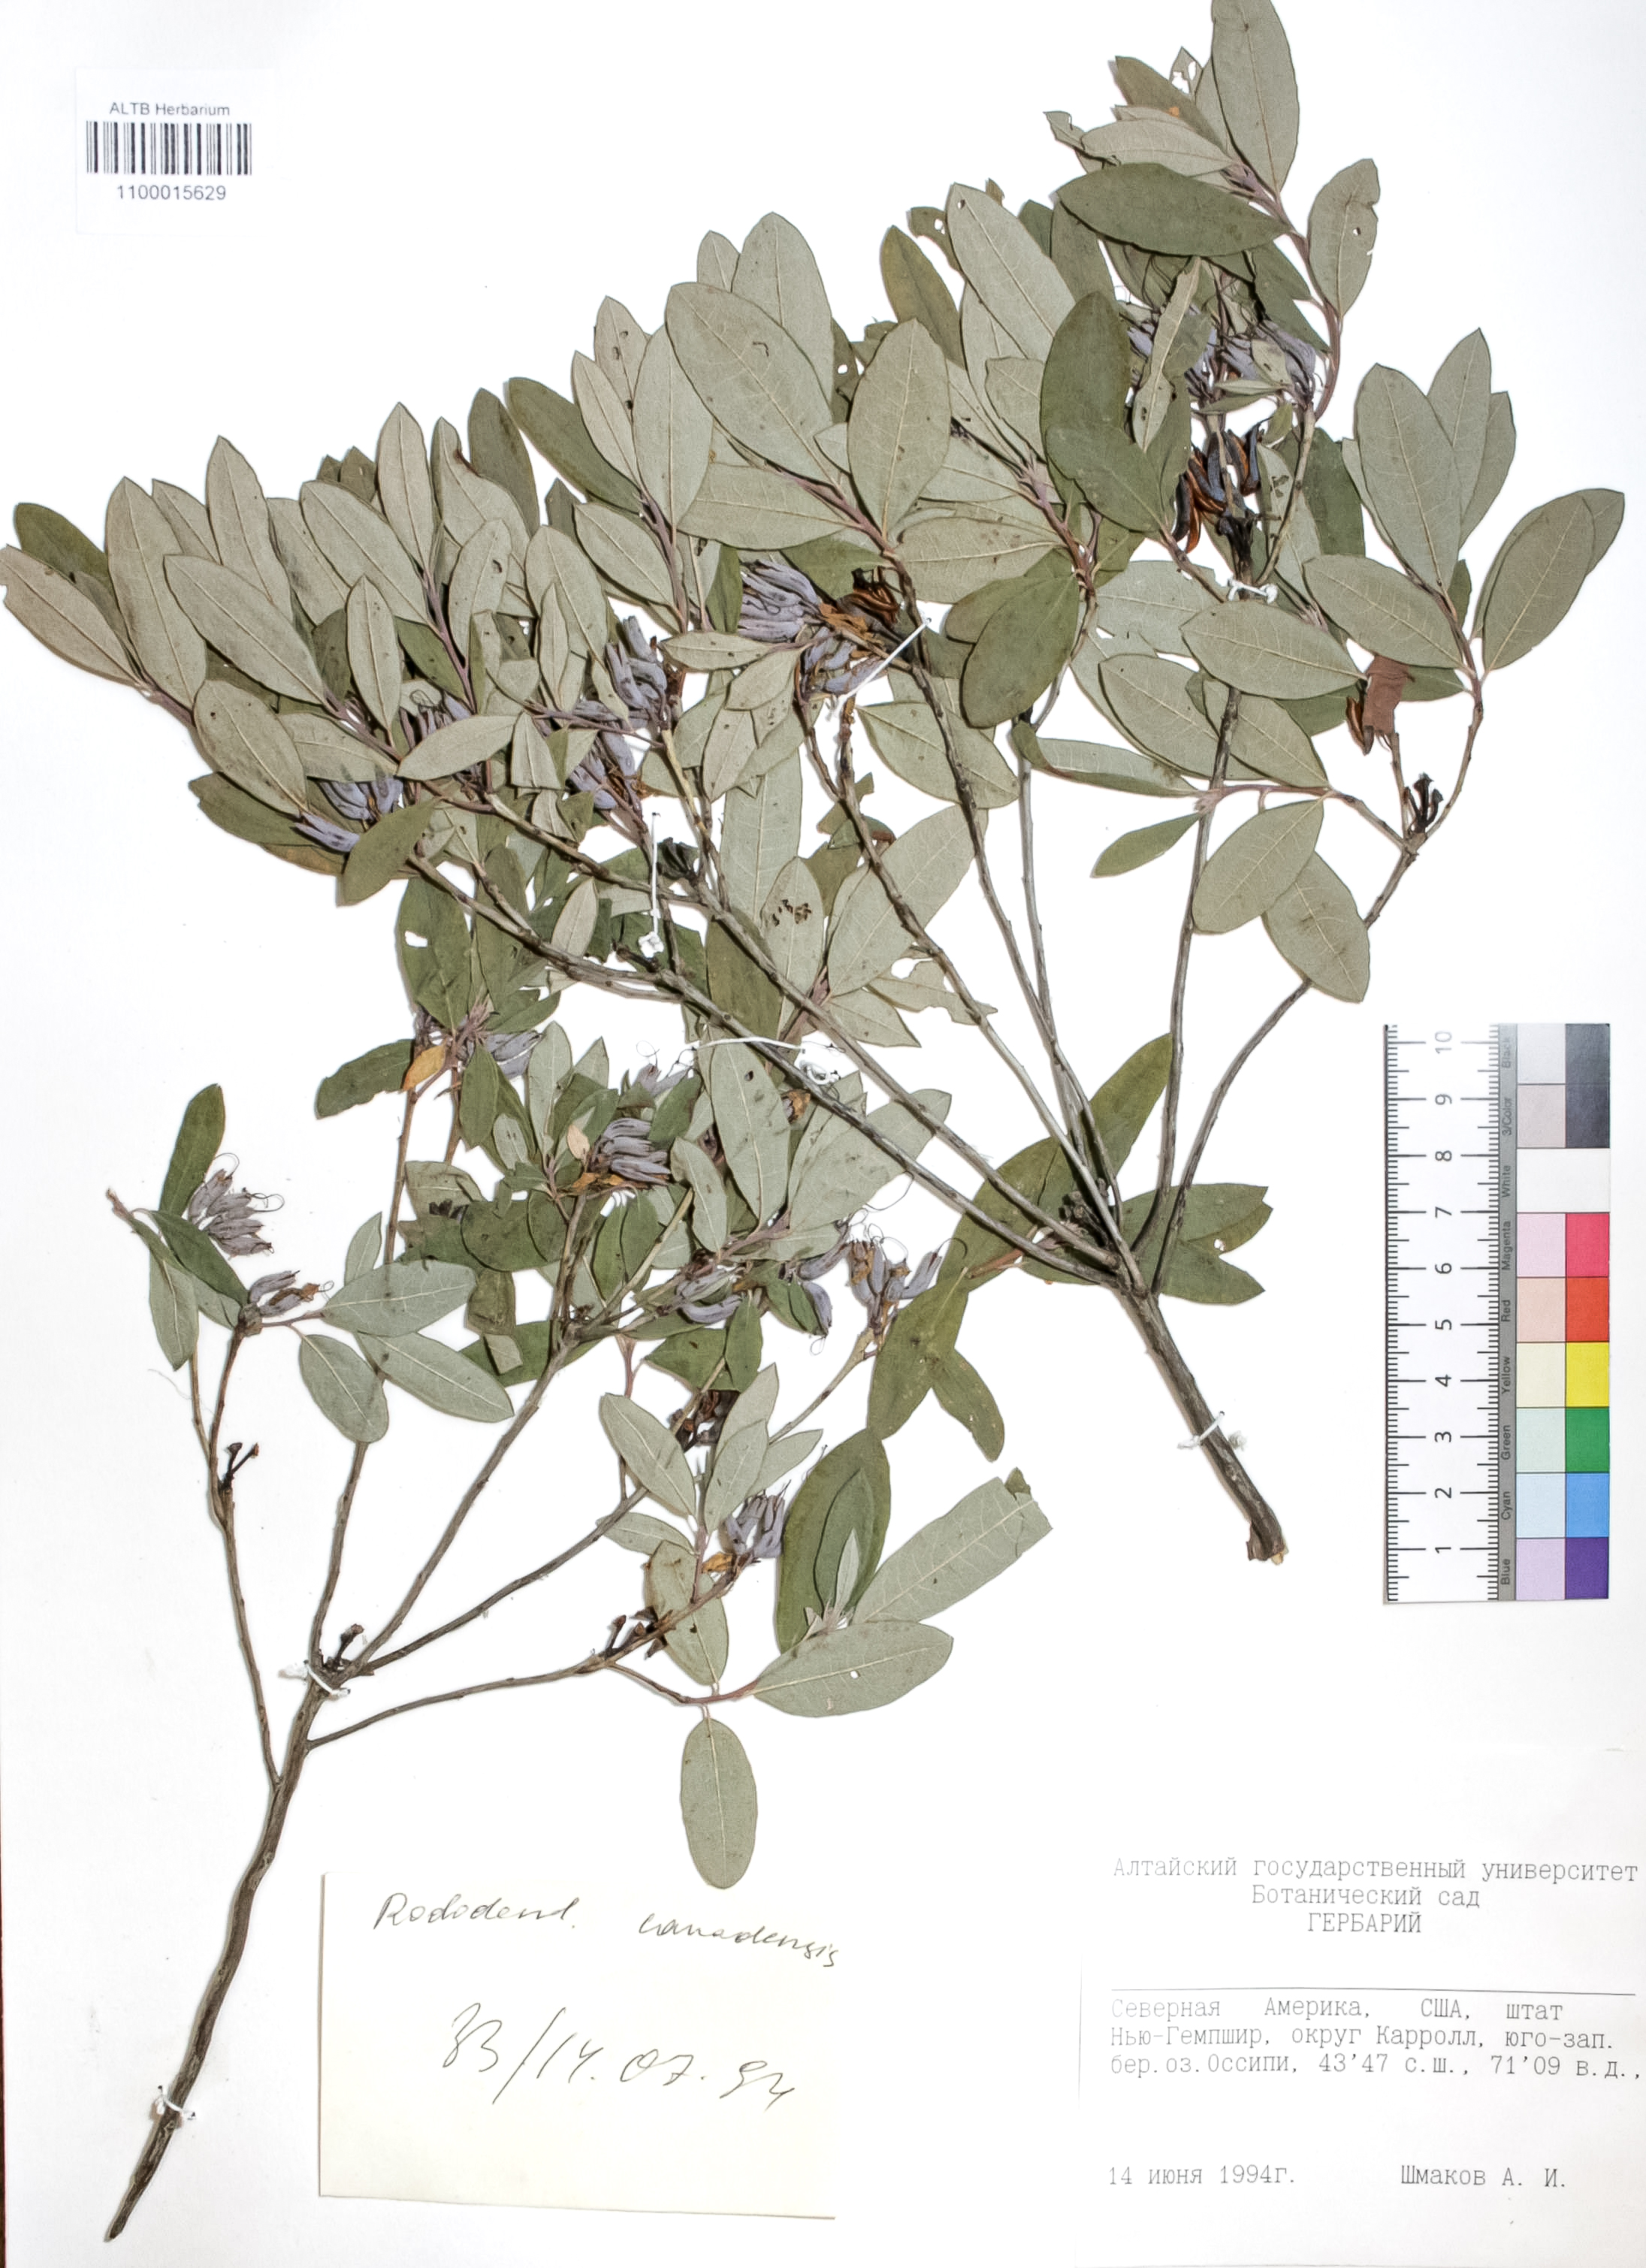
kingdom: Plantae
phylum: Tracheophyta
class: Magnoliopsida
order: Ericales
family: Ericaceae
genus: Rhododendron
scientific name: Rhododendron canadense
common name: Rhodora
